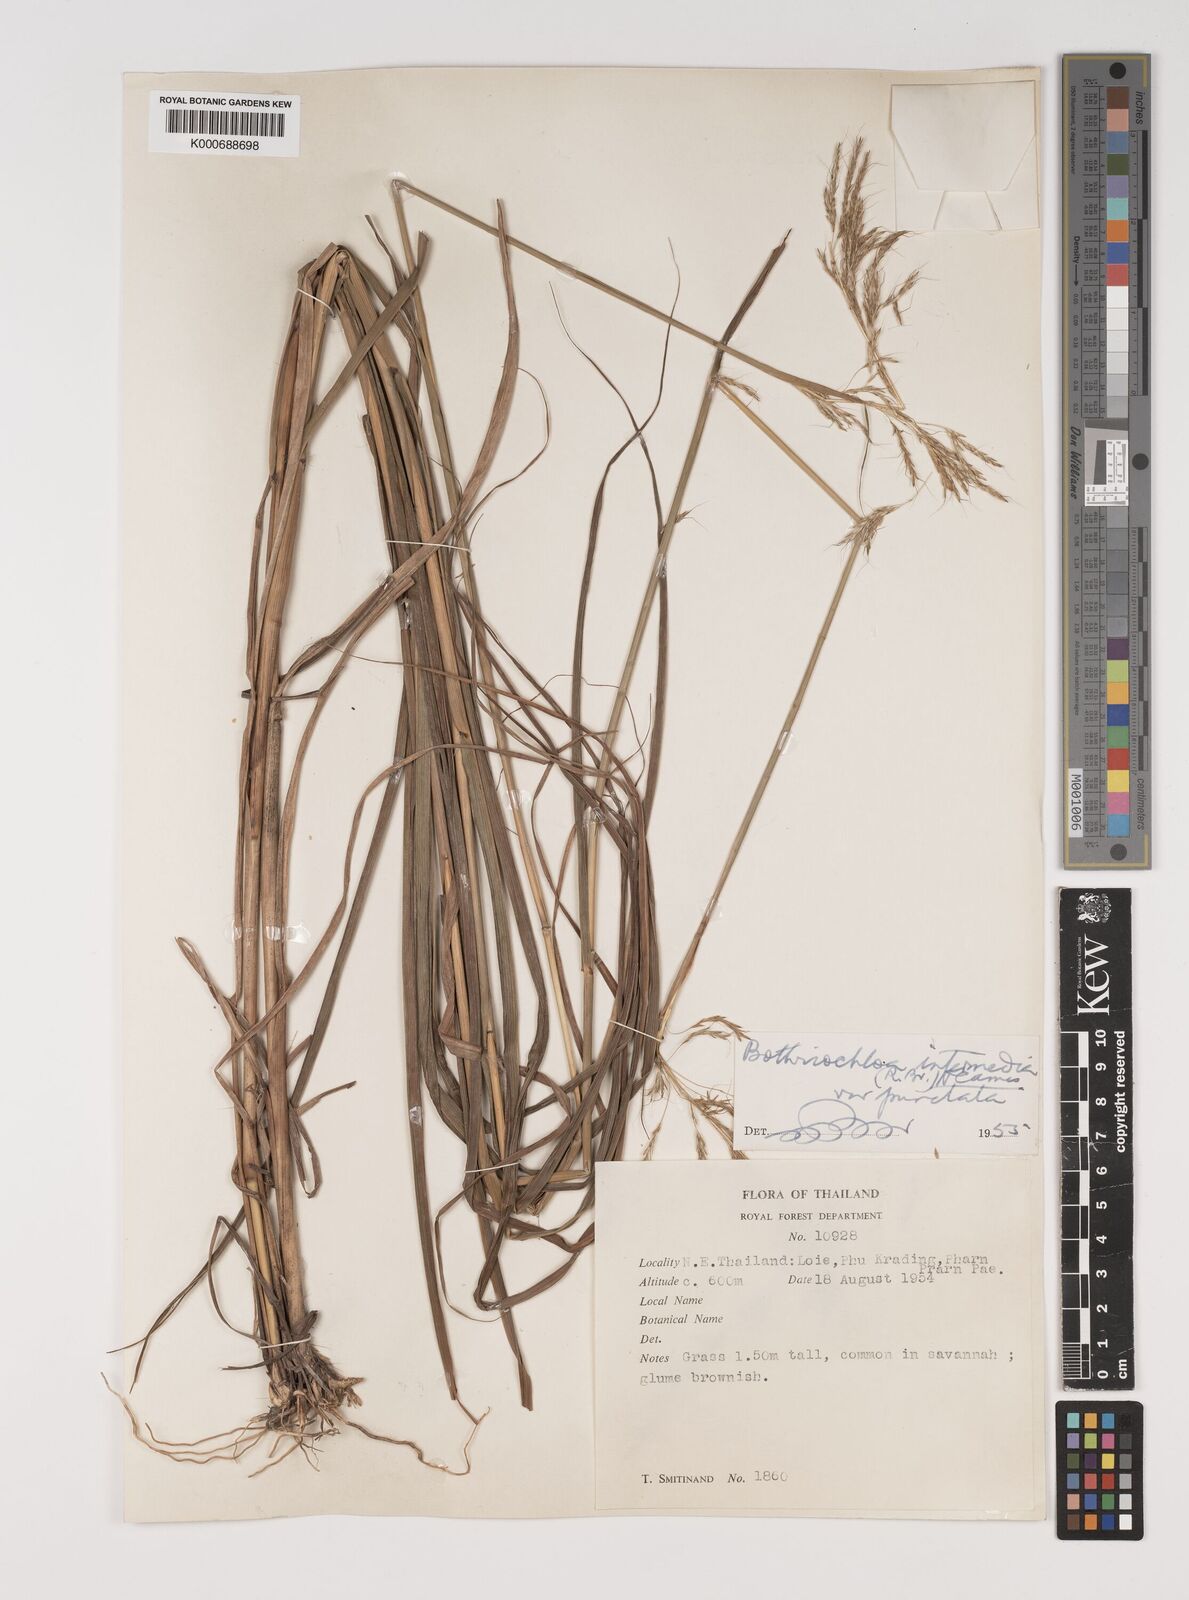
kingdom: Plantae
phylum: Tracheophyta
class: Liliopsida
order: Poales
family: Poaceae
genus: Bothriochloa
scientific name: Bothriochloa bladhii
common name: Caucasian bluestem
